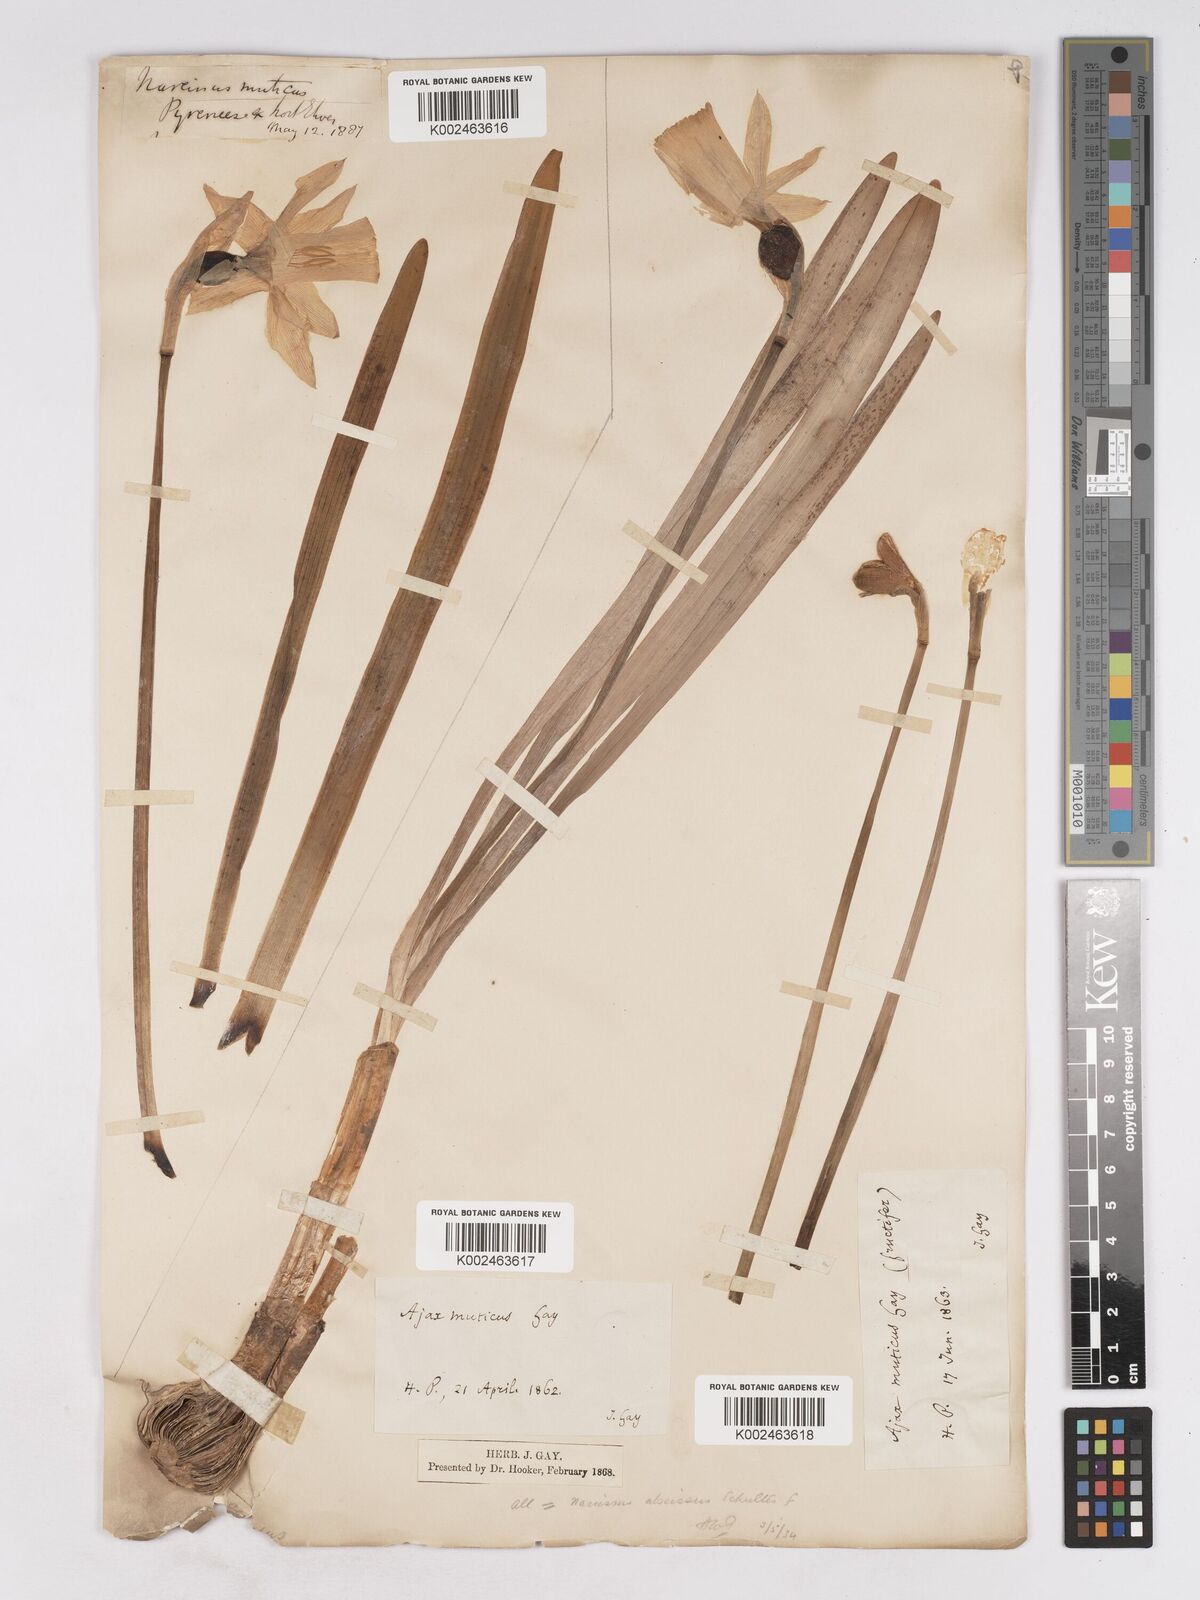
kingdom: Plantae
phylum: Tracheophyta
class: Liliopsida
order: Asparagales
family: Amaryllidaceae
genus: Narcissus
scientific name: Narcissus abscissus
